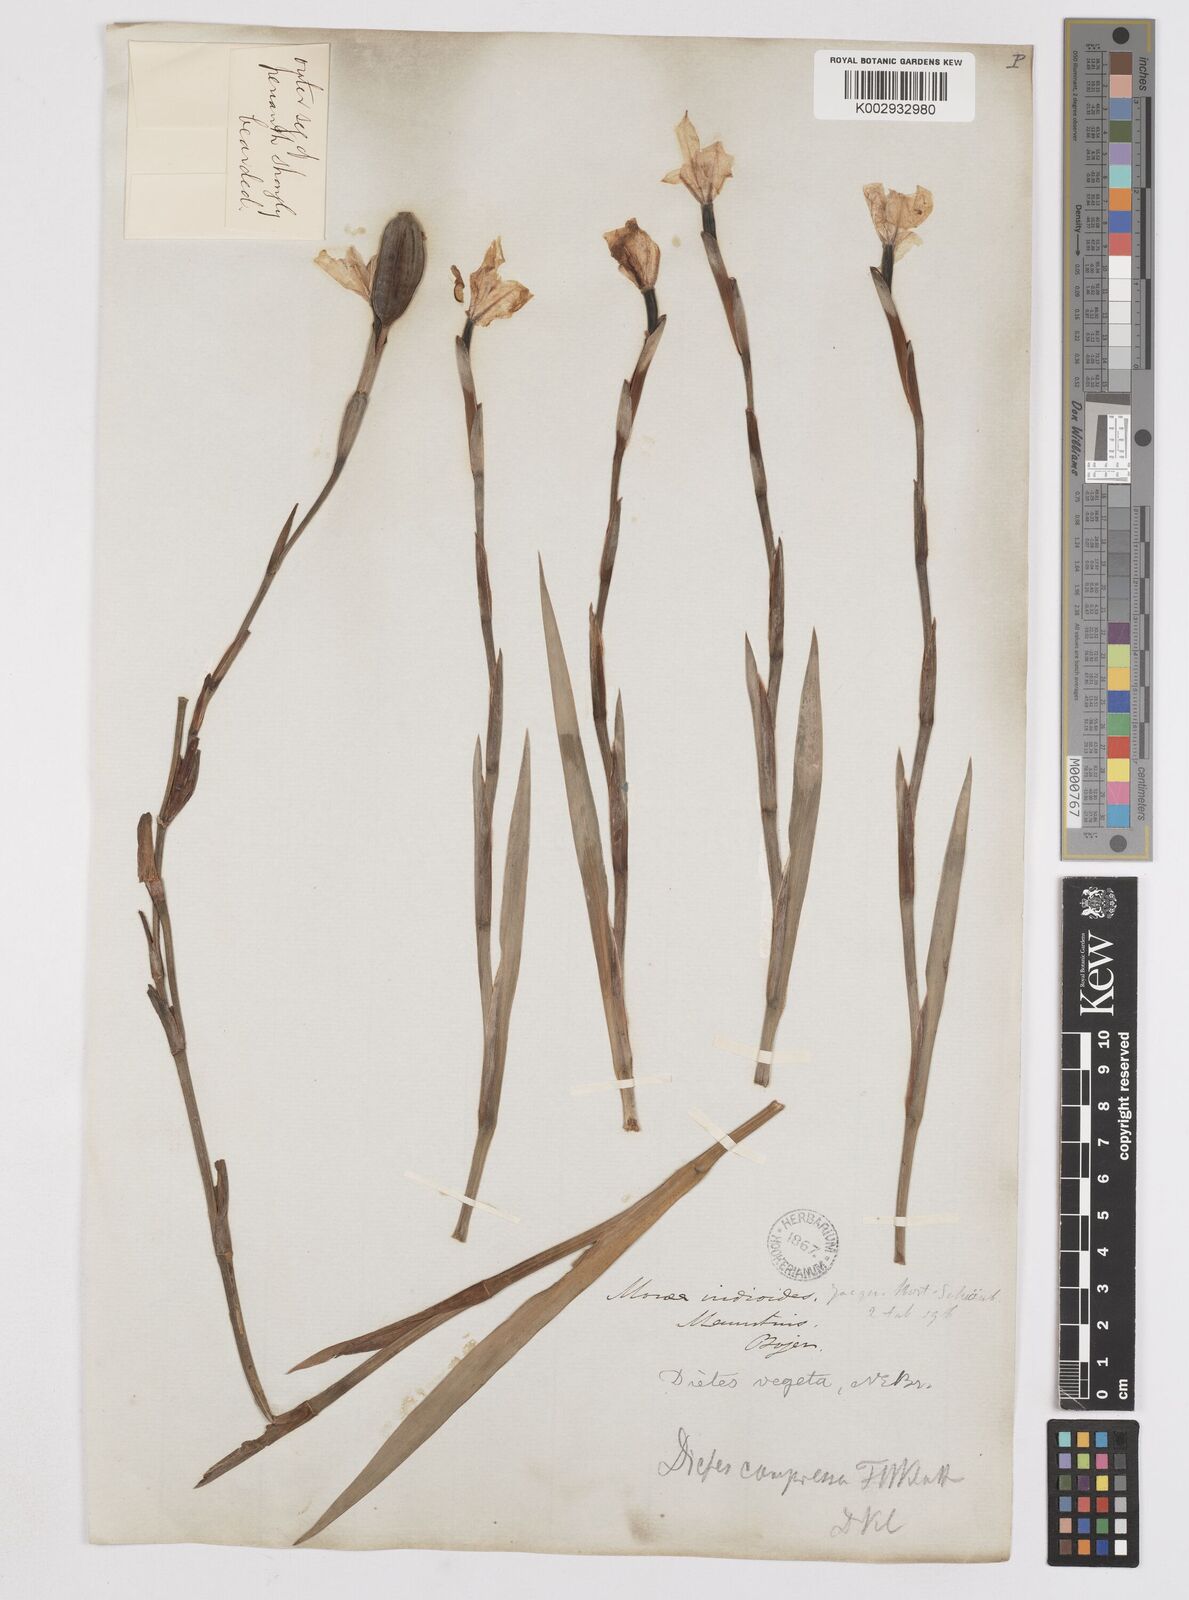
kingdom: Plantae
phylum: Tracheophyta
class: Liliopsida
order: Asparagales
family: Iridaceae
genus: Dietes
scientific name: Dietes iridioides
